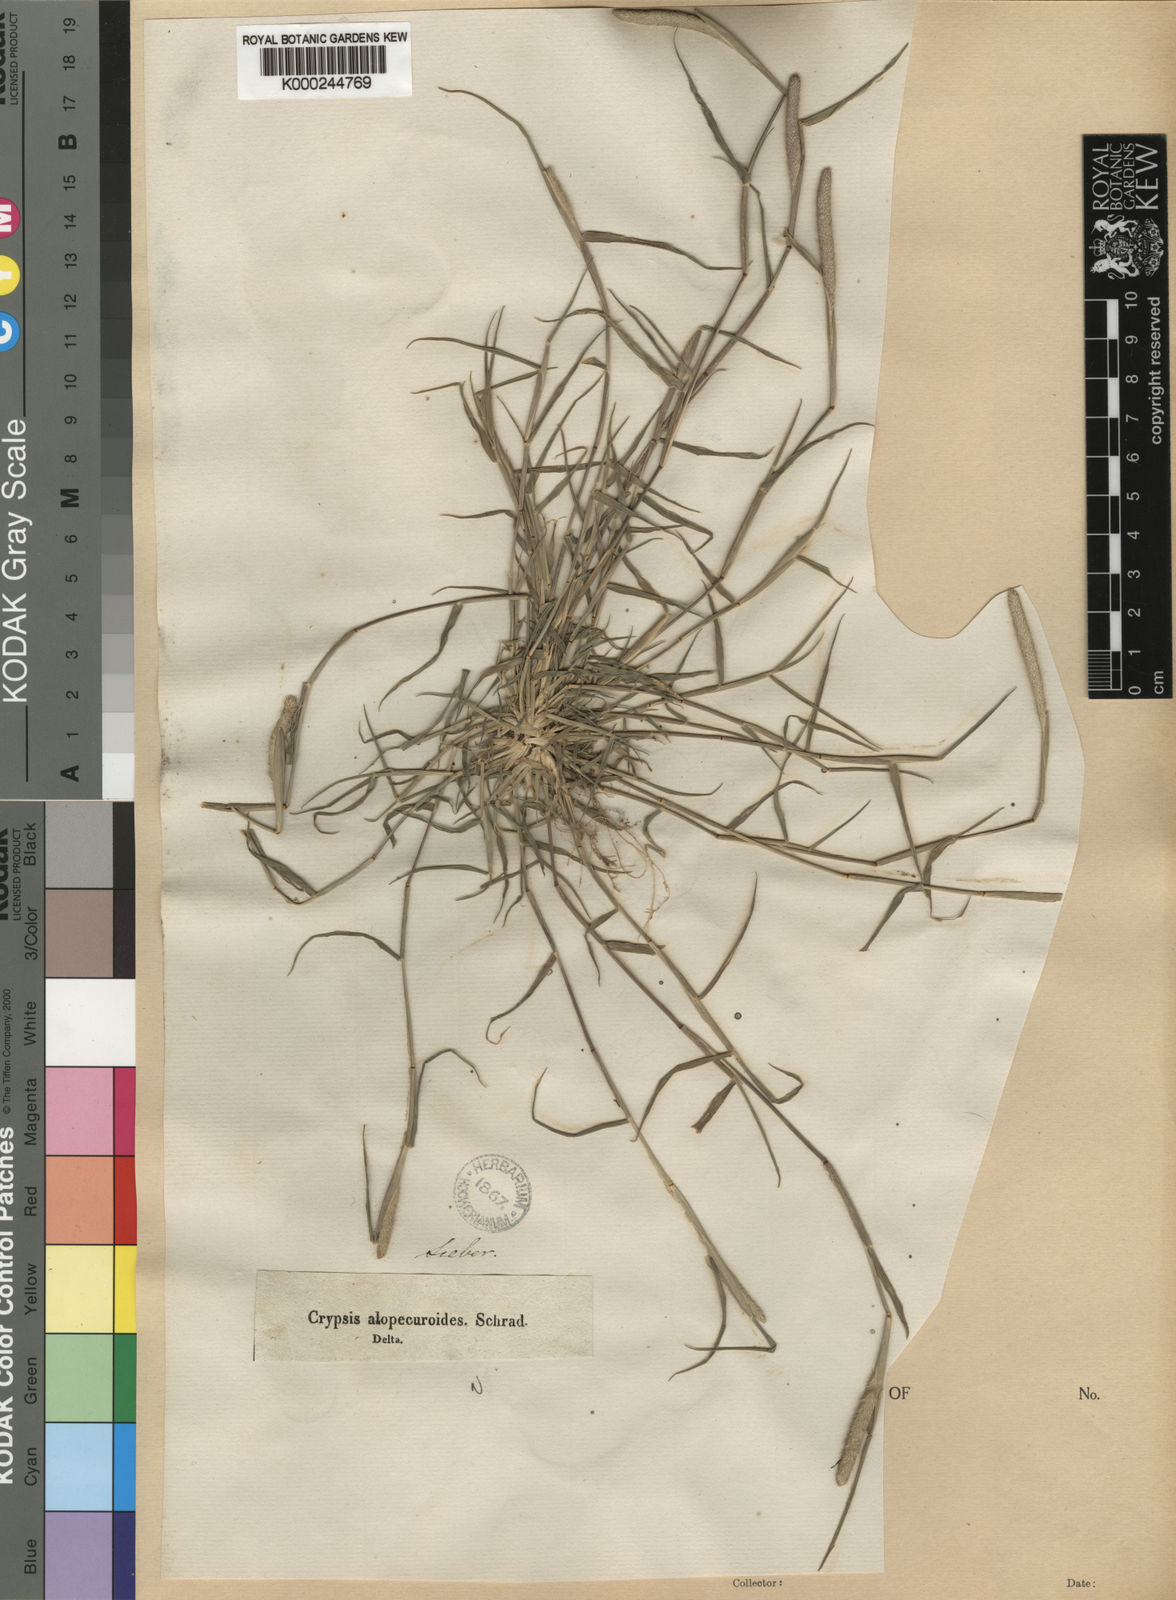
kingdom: Plantae
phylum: Tracheophyta
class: Liliopsida
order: Poales
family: Poaceae
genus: Sporobolus
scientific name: Sporobolus alopecuroides
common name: Foxtail pricklegrass
